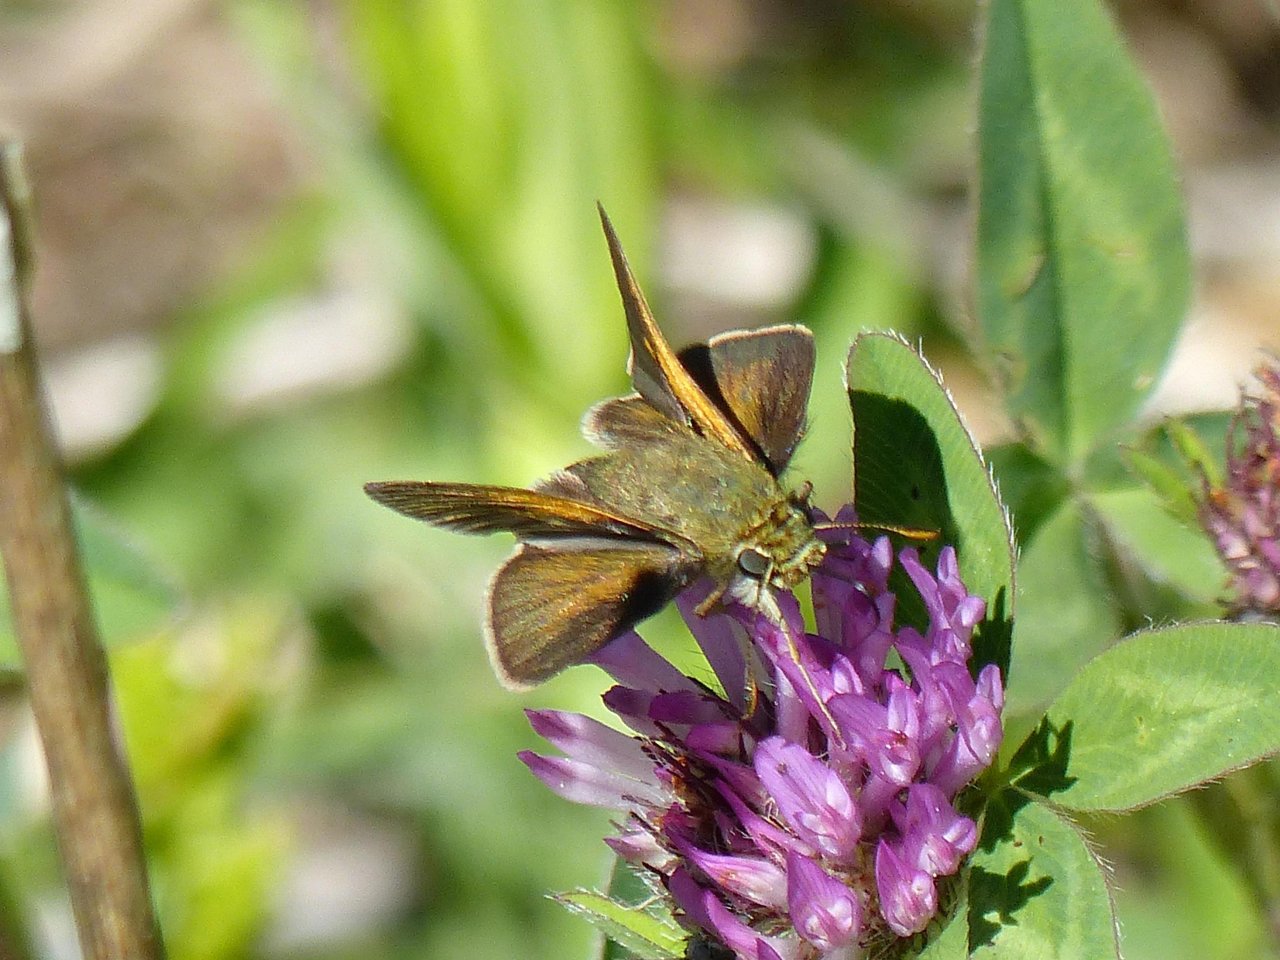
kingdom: Animalia
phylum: Arthropoda
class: Insecta
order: Lepidoptera
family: Hesperiidae
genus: Polites
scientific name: Polites themistocles
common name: Tawny-edged Skipper
